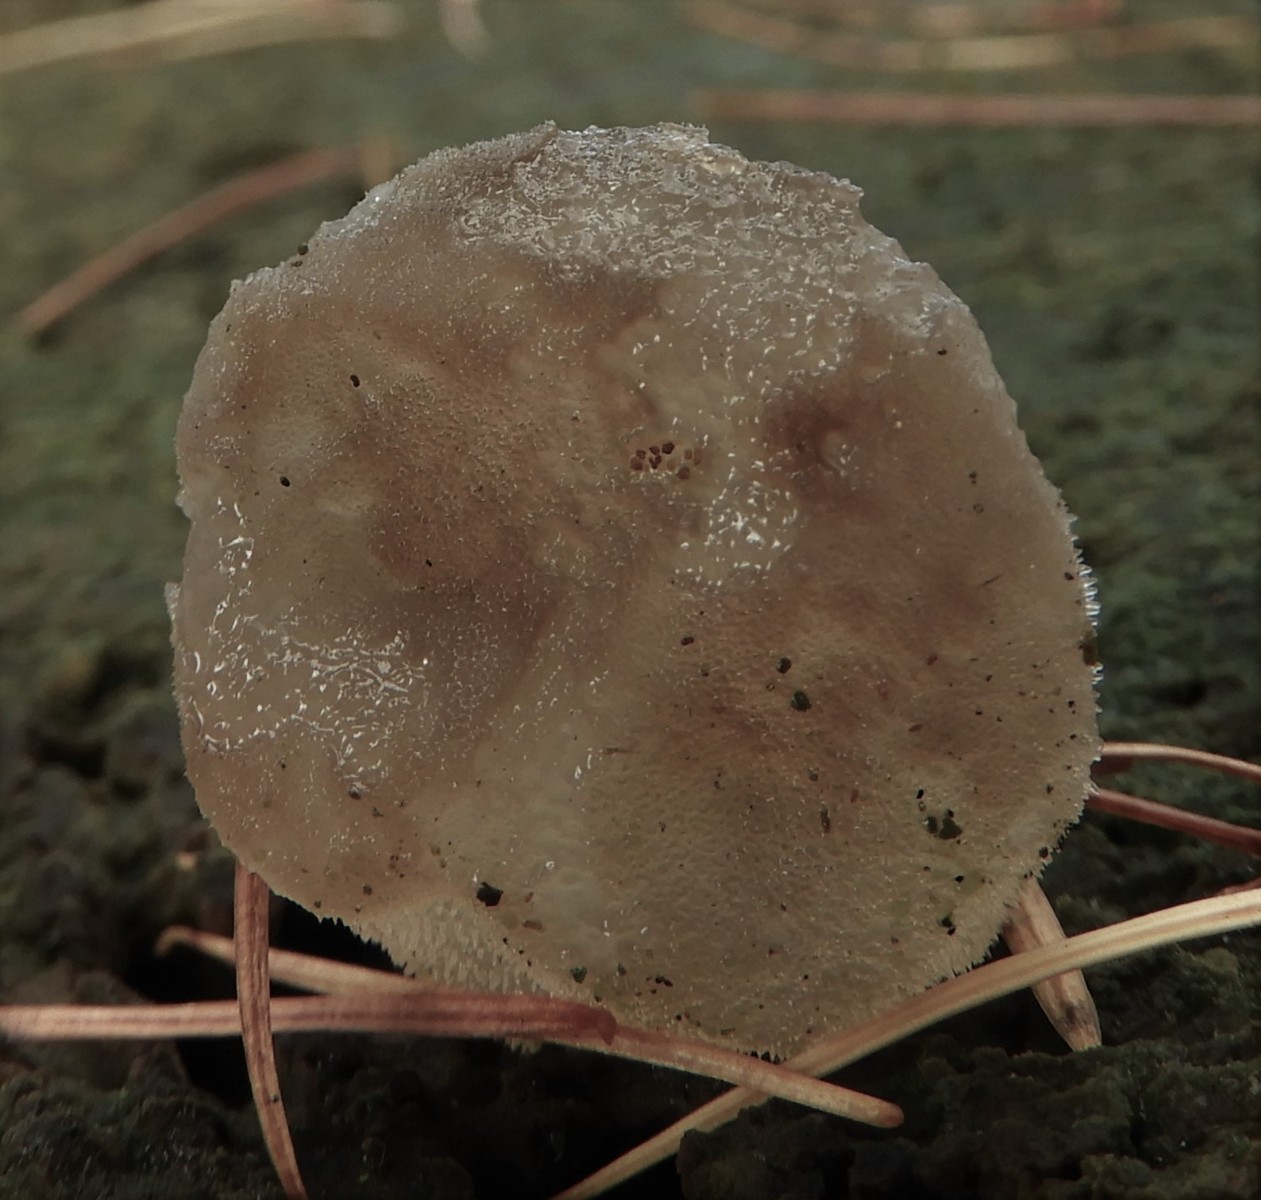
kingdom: Fungi
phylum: Basidiomycota
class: Agaricomycetes
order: Auriculariales
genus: Pseudohydnum
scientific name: Pseudohydnum gelatinosum
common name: bævretand
